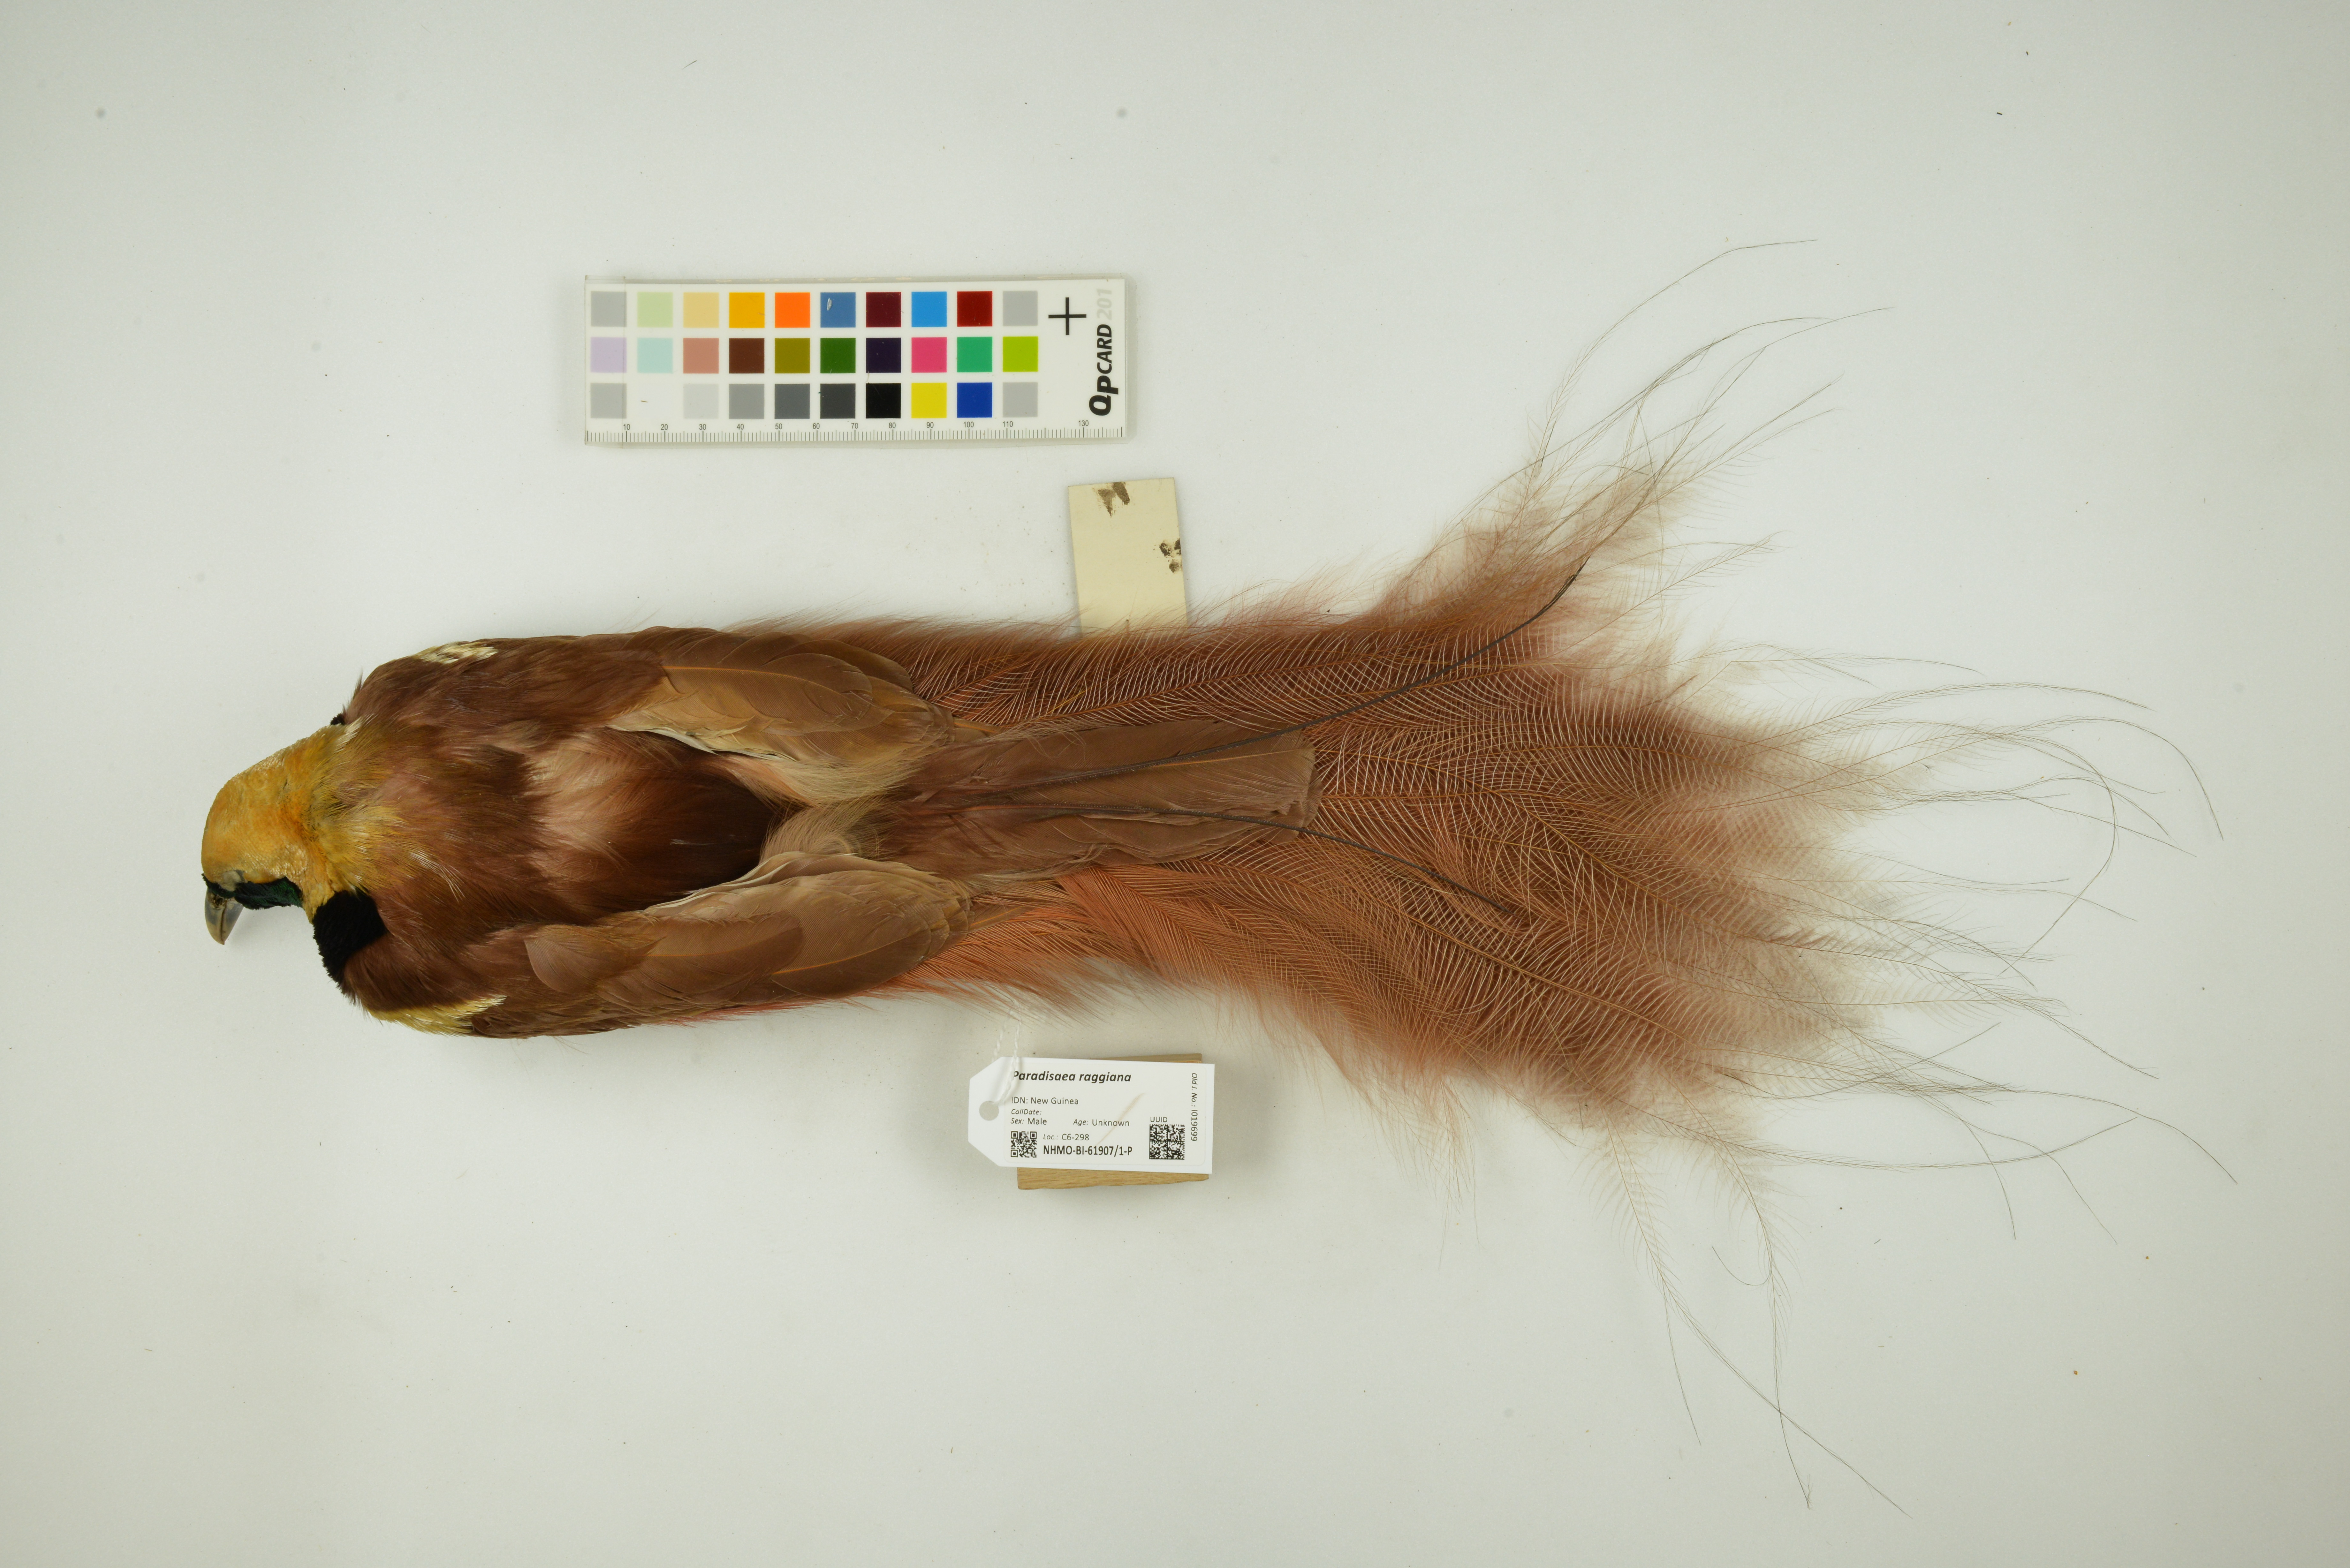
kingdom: Animalia
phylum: Chordata
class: Aves
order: Passeriformes
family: Paradisaeidae
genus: Paradisaea
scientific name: Paradisaea raggiana
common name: Raggiana bird-of-paradise
